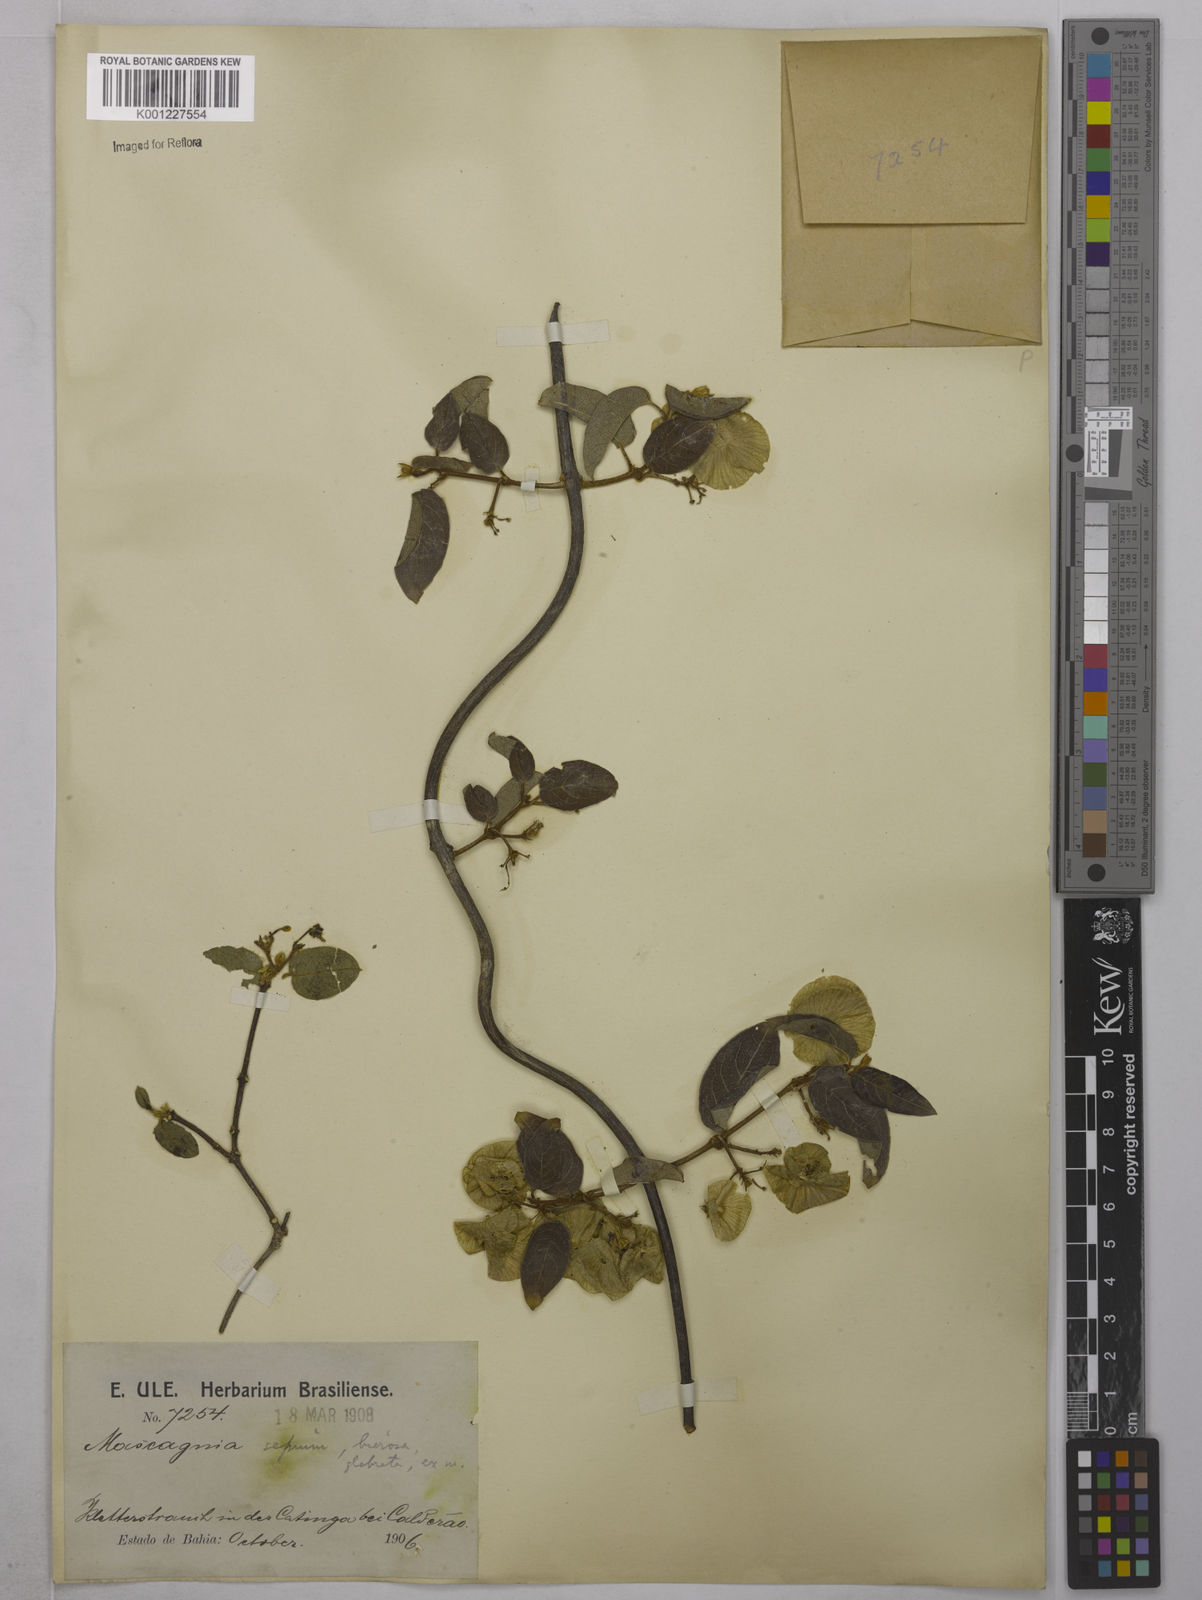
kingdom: Plantae
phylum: Tracheophyta
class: Magnoliopsida
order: Malpighiales
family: Malpighiaceae
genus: Mascagnia
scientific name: Mascagnia sepium
